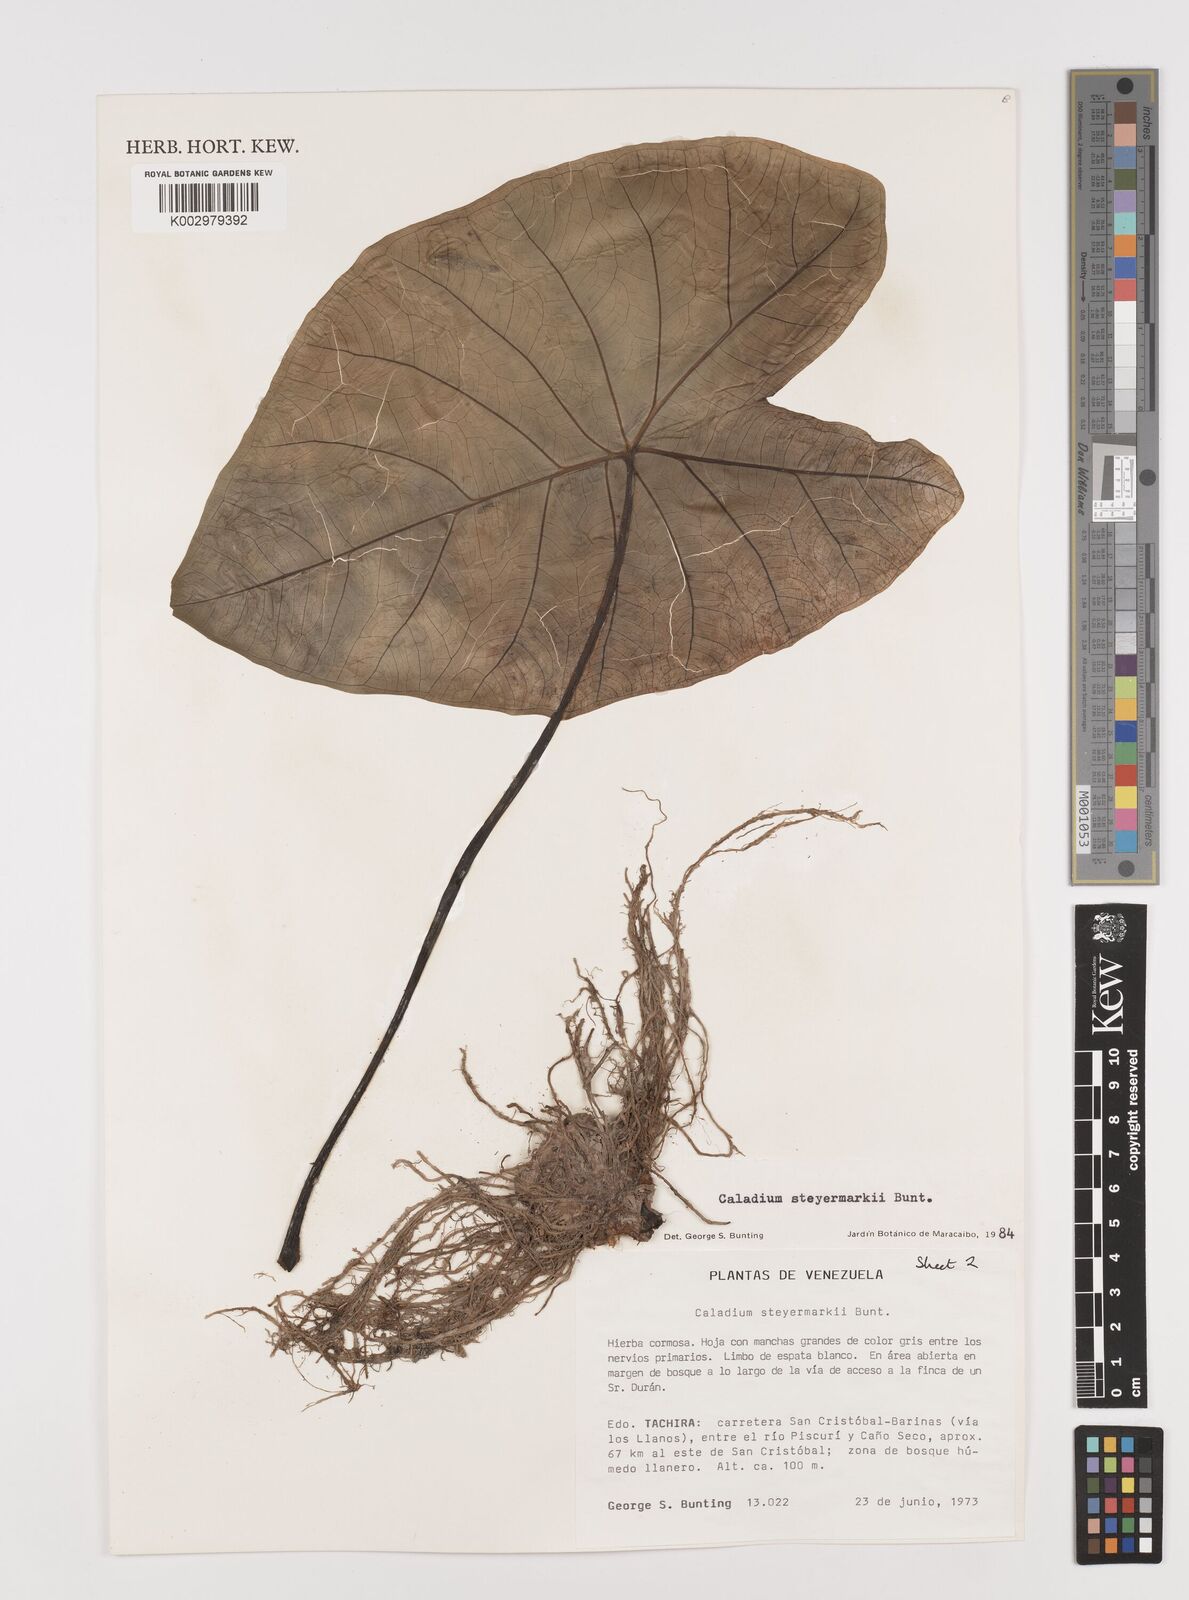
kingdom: Plantae
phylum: Tracheophyta
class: Liliopsida
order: Alismatales
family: Araceae
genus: Caladium
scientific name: Caladium steyermarkii
